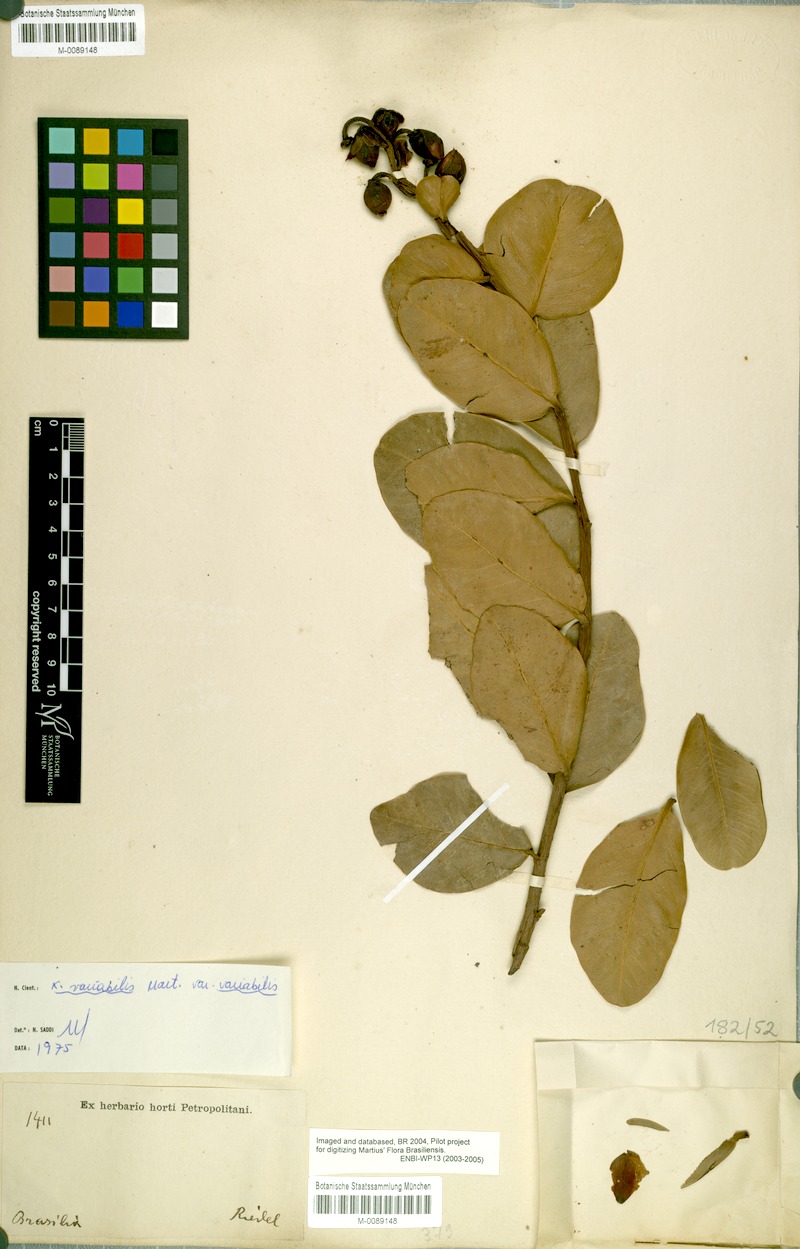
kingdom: Plantae
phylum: Tracheophyta
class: Magnoliopsida
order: Malpighiales
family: Calophyllaceae
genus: Kielmeyera
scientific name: Kielmeyera variabilis
